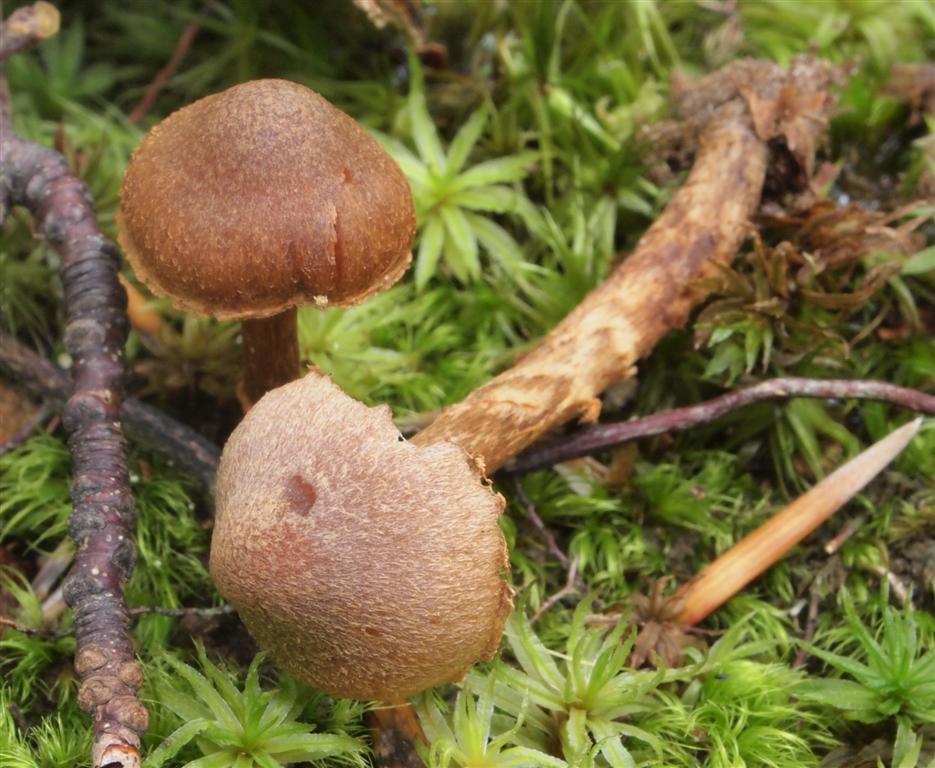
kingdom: Fungi
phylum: Basidiomycota
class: Agaricomycetes
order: Agaricales
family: Cortinariaceae
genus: Cortinarius
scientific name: Cortinarius quercoconicus
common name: agernskål-slørhat
